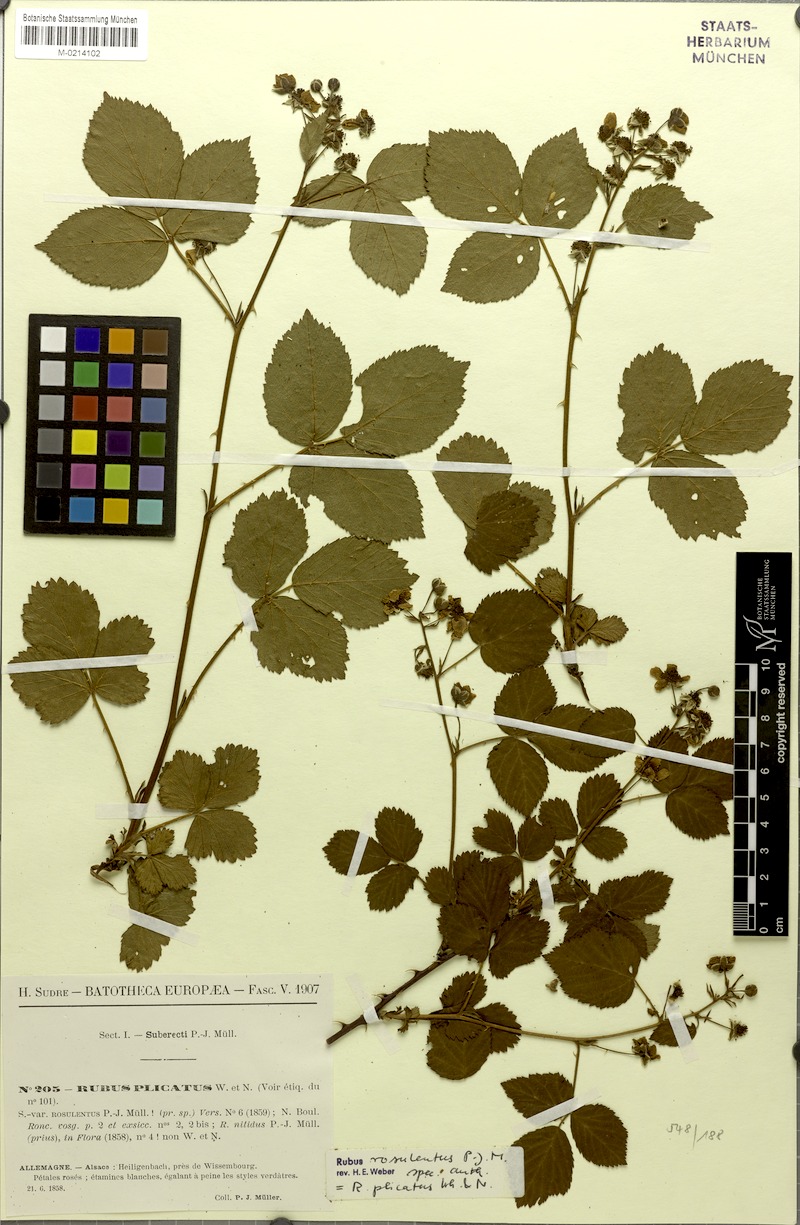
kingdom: Plantae
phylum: Tracheophyta
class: Magnoliopsida
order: Rosales
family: Rosaceae
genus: Rubus
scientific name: Rubus plicatus
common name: Plaited-leaved bramble
